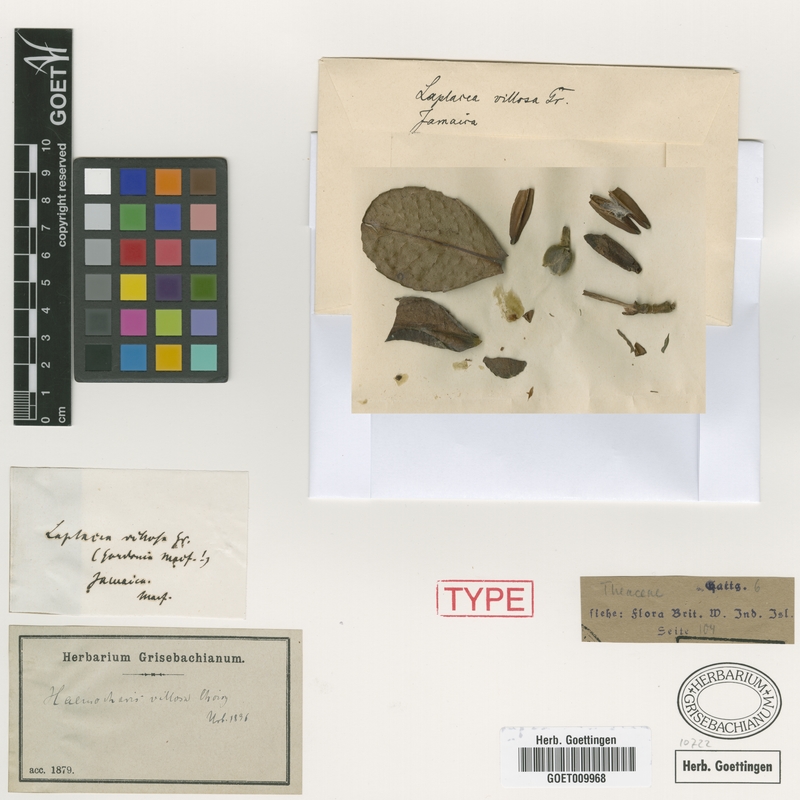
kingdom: Plantae
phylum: Tracheophyta
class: Magnoliopsida
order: Ericales
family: Theaceae
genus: Gordonia
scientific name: Gordonia villosa
